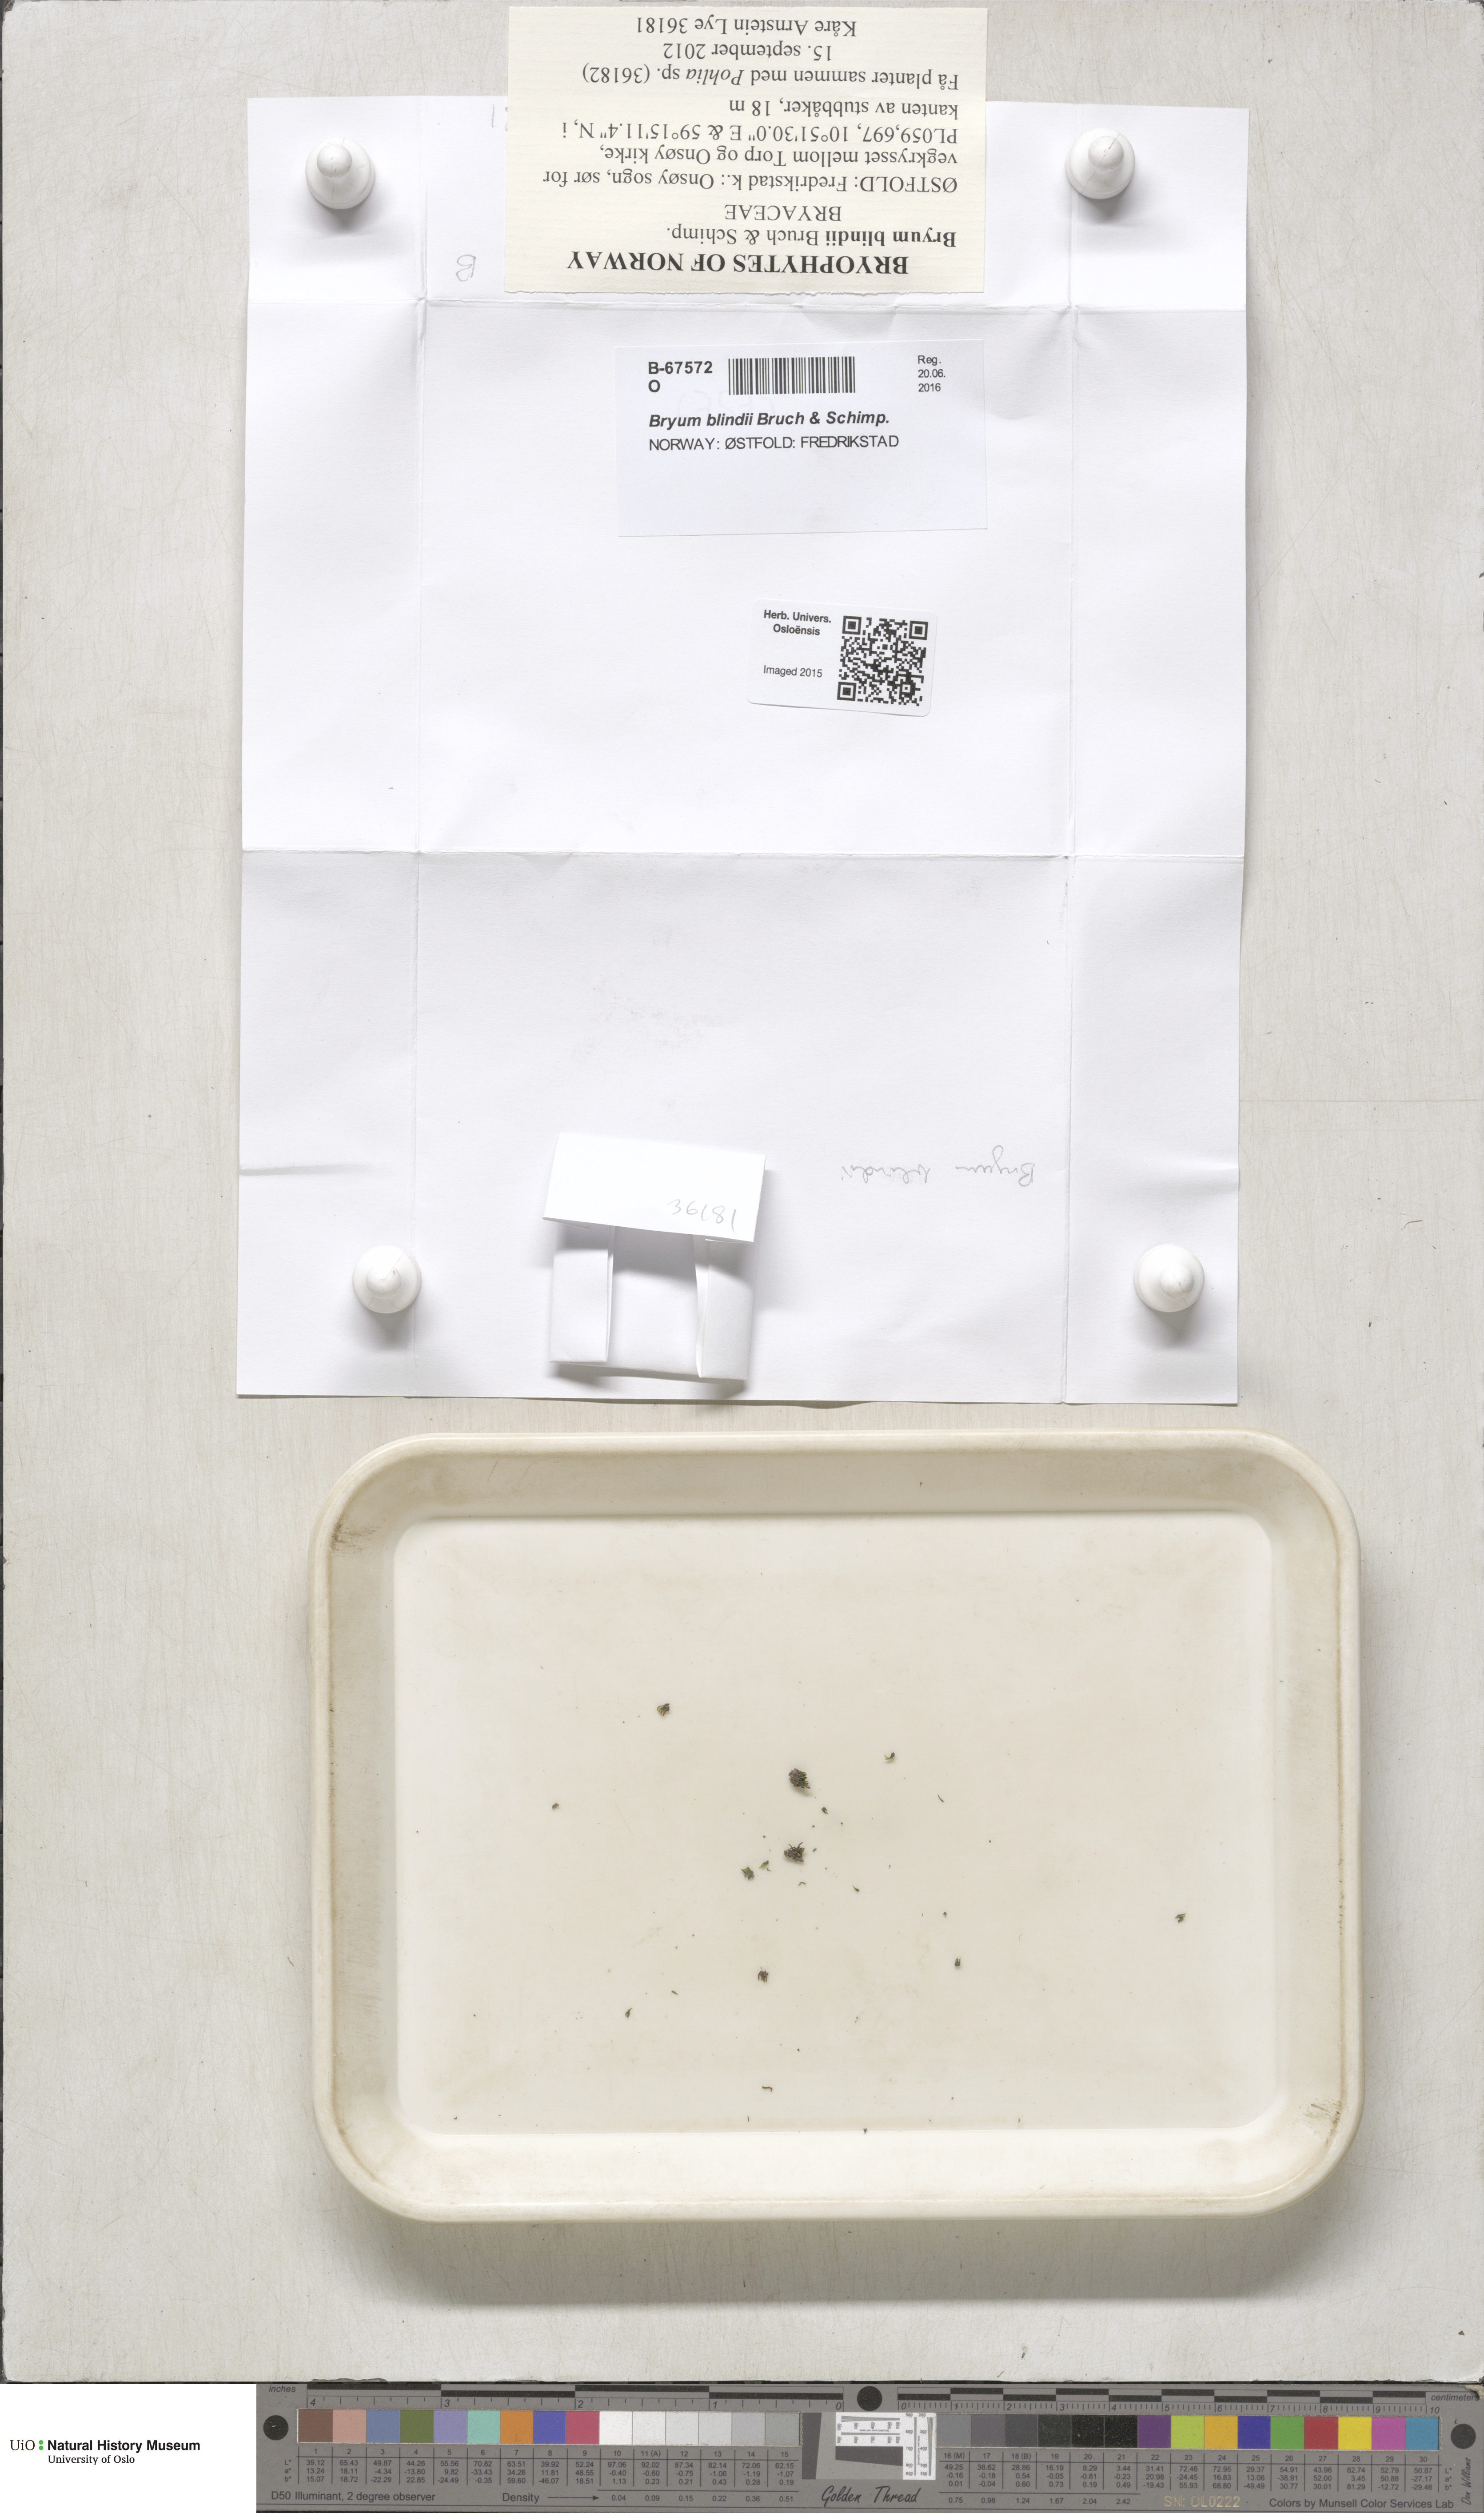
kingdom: Plantae
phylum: Bryophyta
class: Bryopsida
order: Bryales
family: Bryaceae
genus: Bryum
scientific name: Bryum blindii
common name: Blind's bryum
